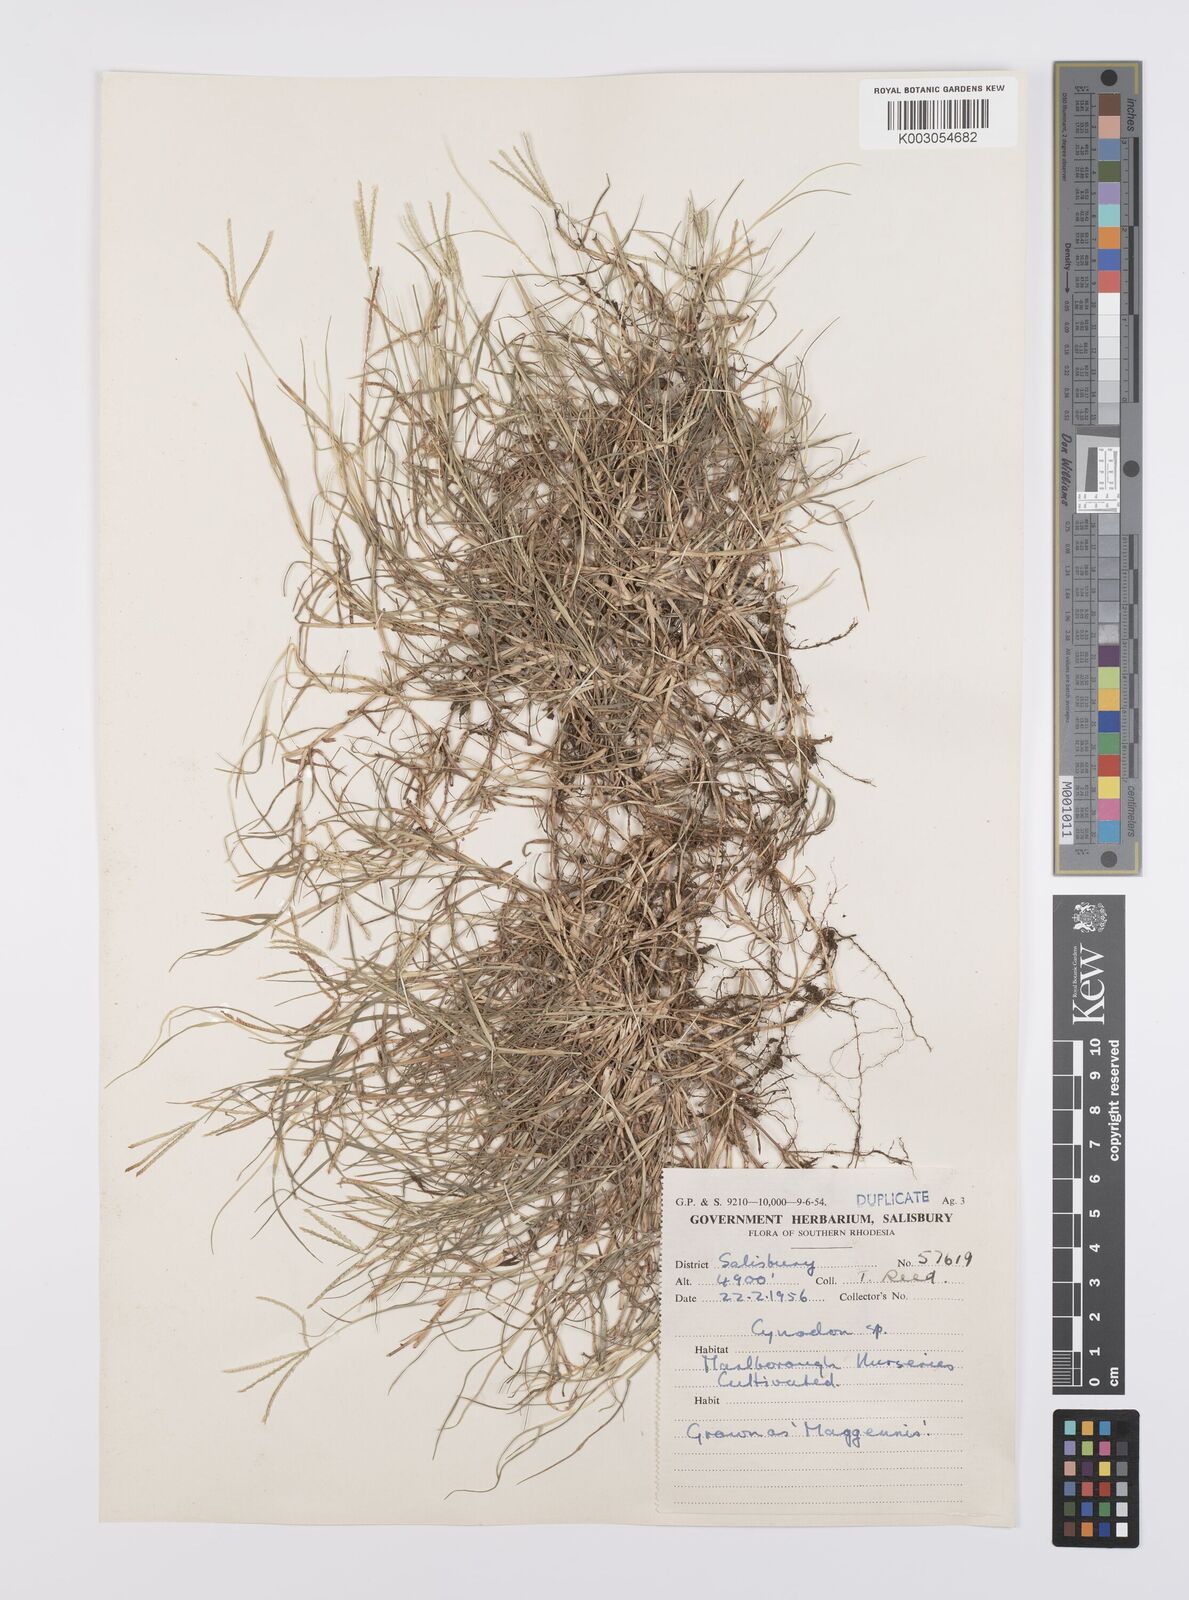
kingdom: Plantae
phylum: Tracheophyta
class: Liliopsida
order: Poales
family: Poaceae
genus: Cynodon
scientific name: Cynodon magennisii
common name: Bermudagrass
